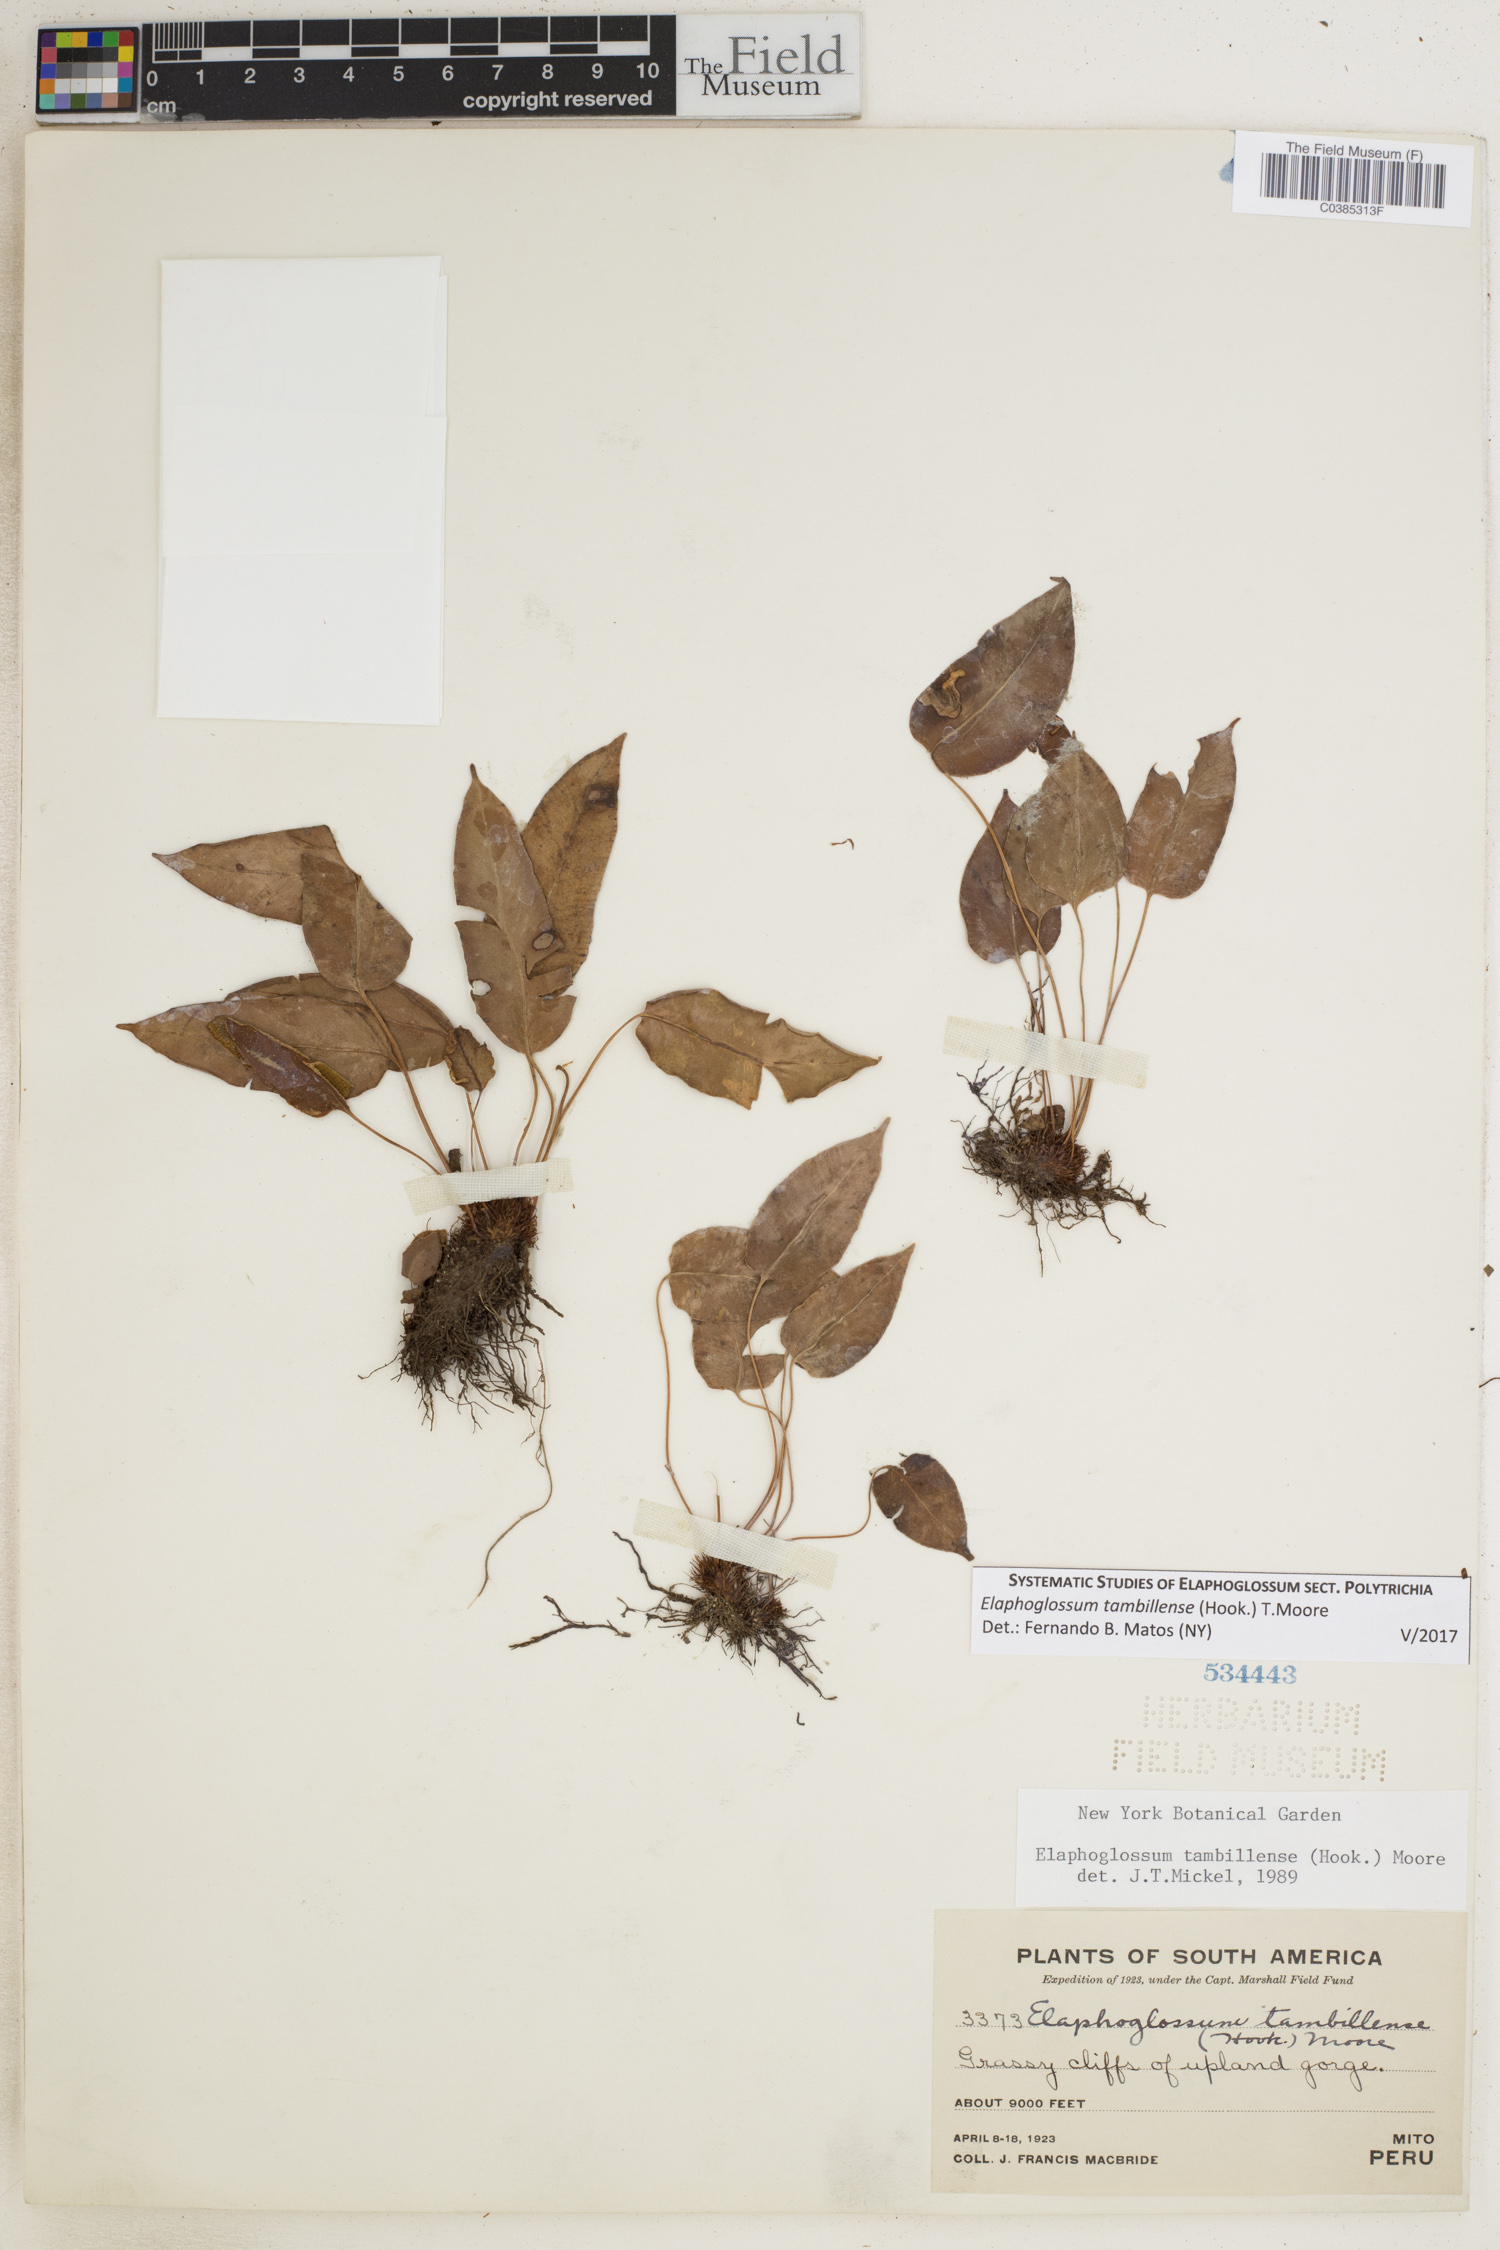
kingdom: Plantae
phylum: Tracheophyta
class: Polypodiopsida
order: Polypodiales
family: Dryopteridaceae
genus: Elaphoglossum
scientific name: Elaphoglossum tambillense
